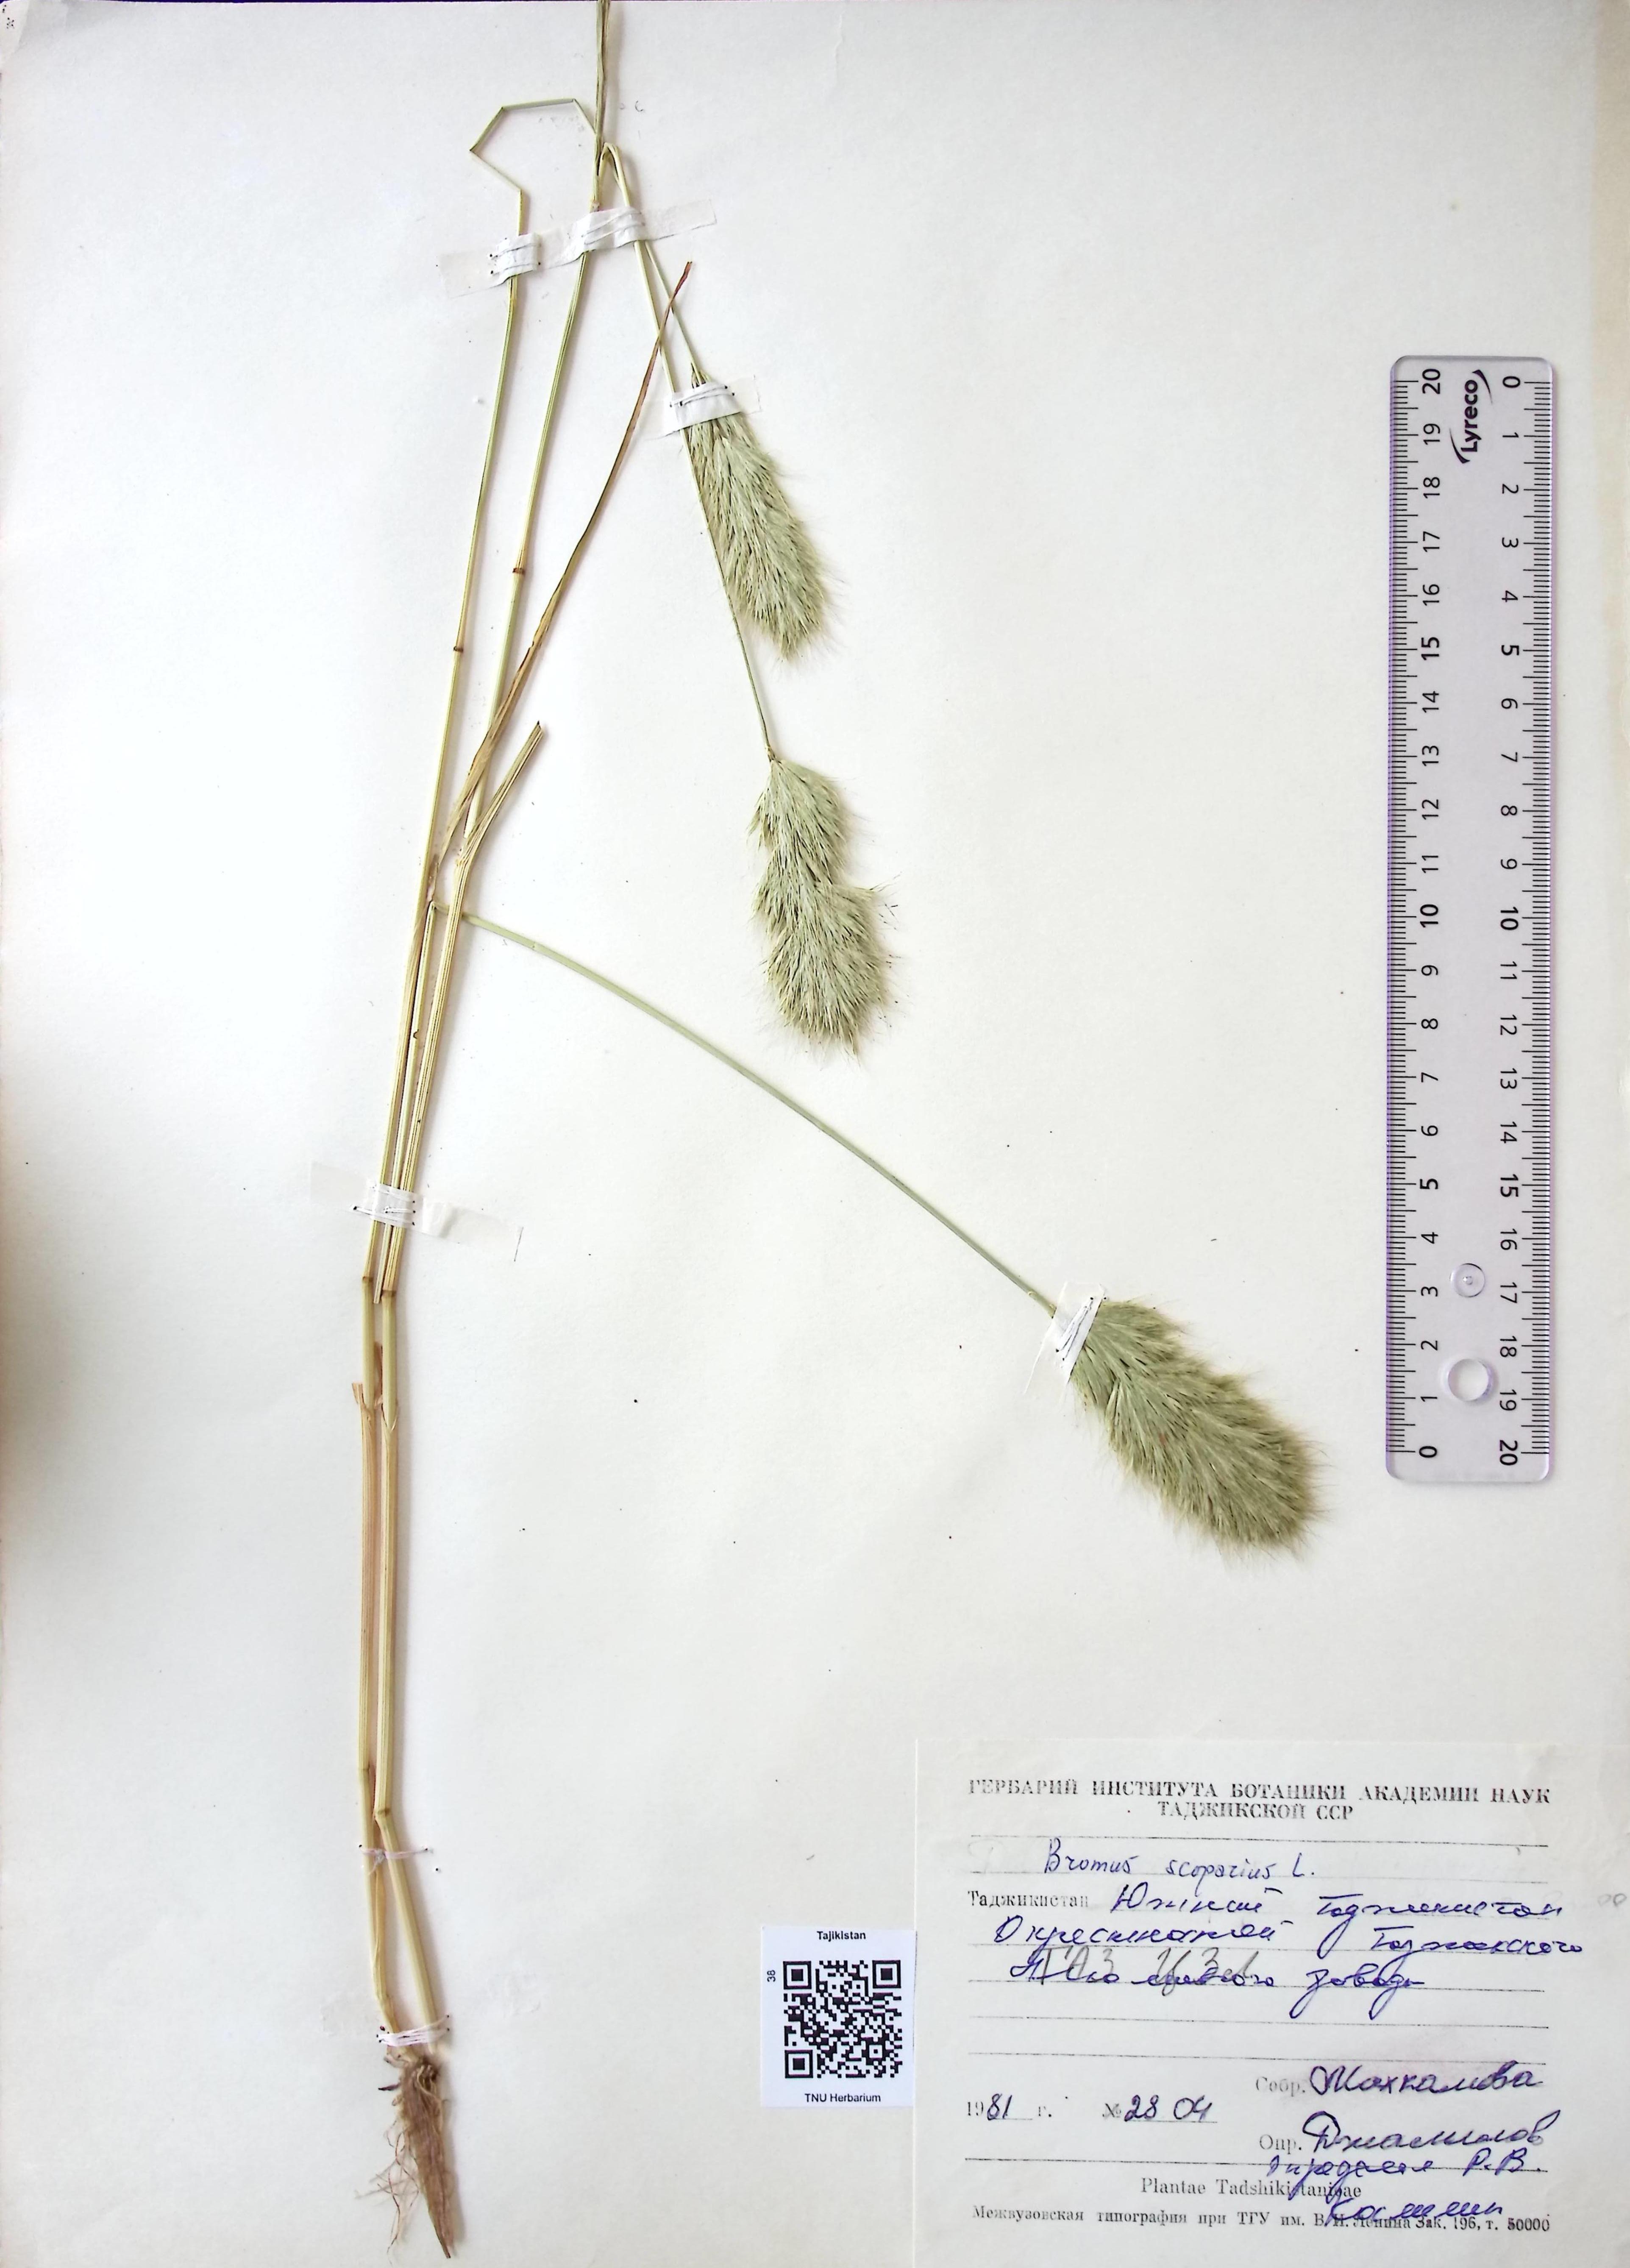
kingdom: Plantae
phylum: Tracheophyta
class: Liliopsida
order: Poales
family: Poaceae
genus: Bromus
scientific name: Bromus
